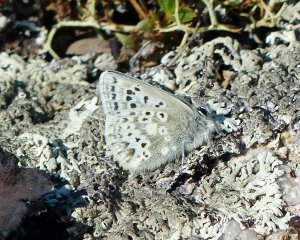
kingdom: Animalia
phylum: Arthropoda
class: Insecta
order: Lepidoptera
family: Lycaenidae
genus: Agriades
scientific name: Agriades glandon
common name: Arctic Blue
